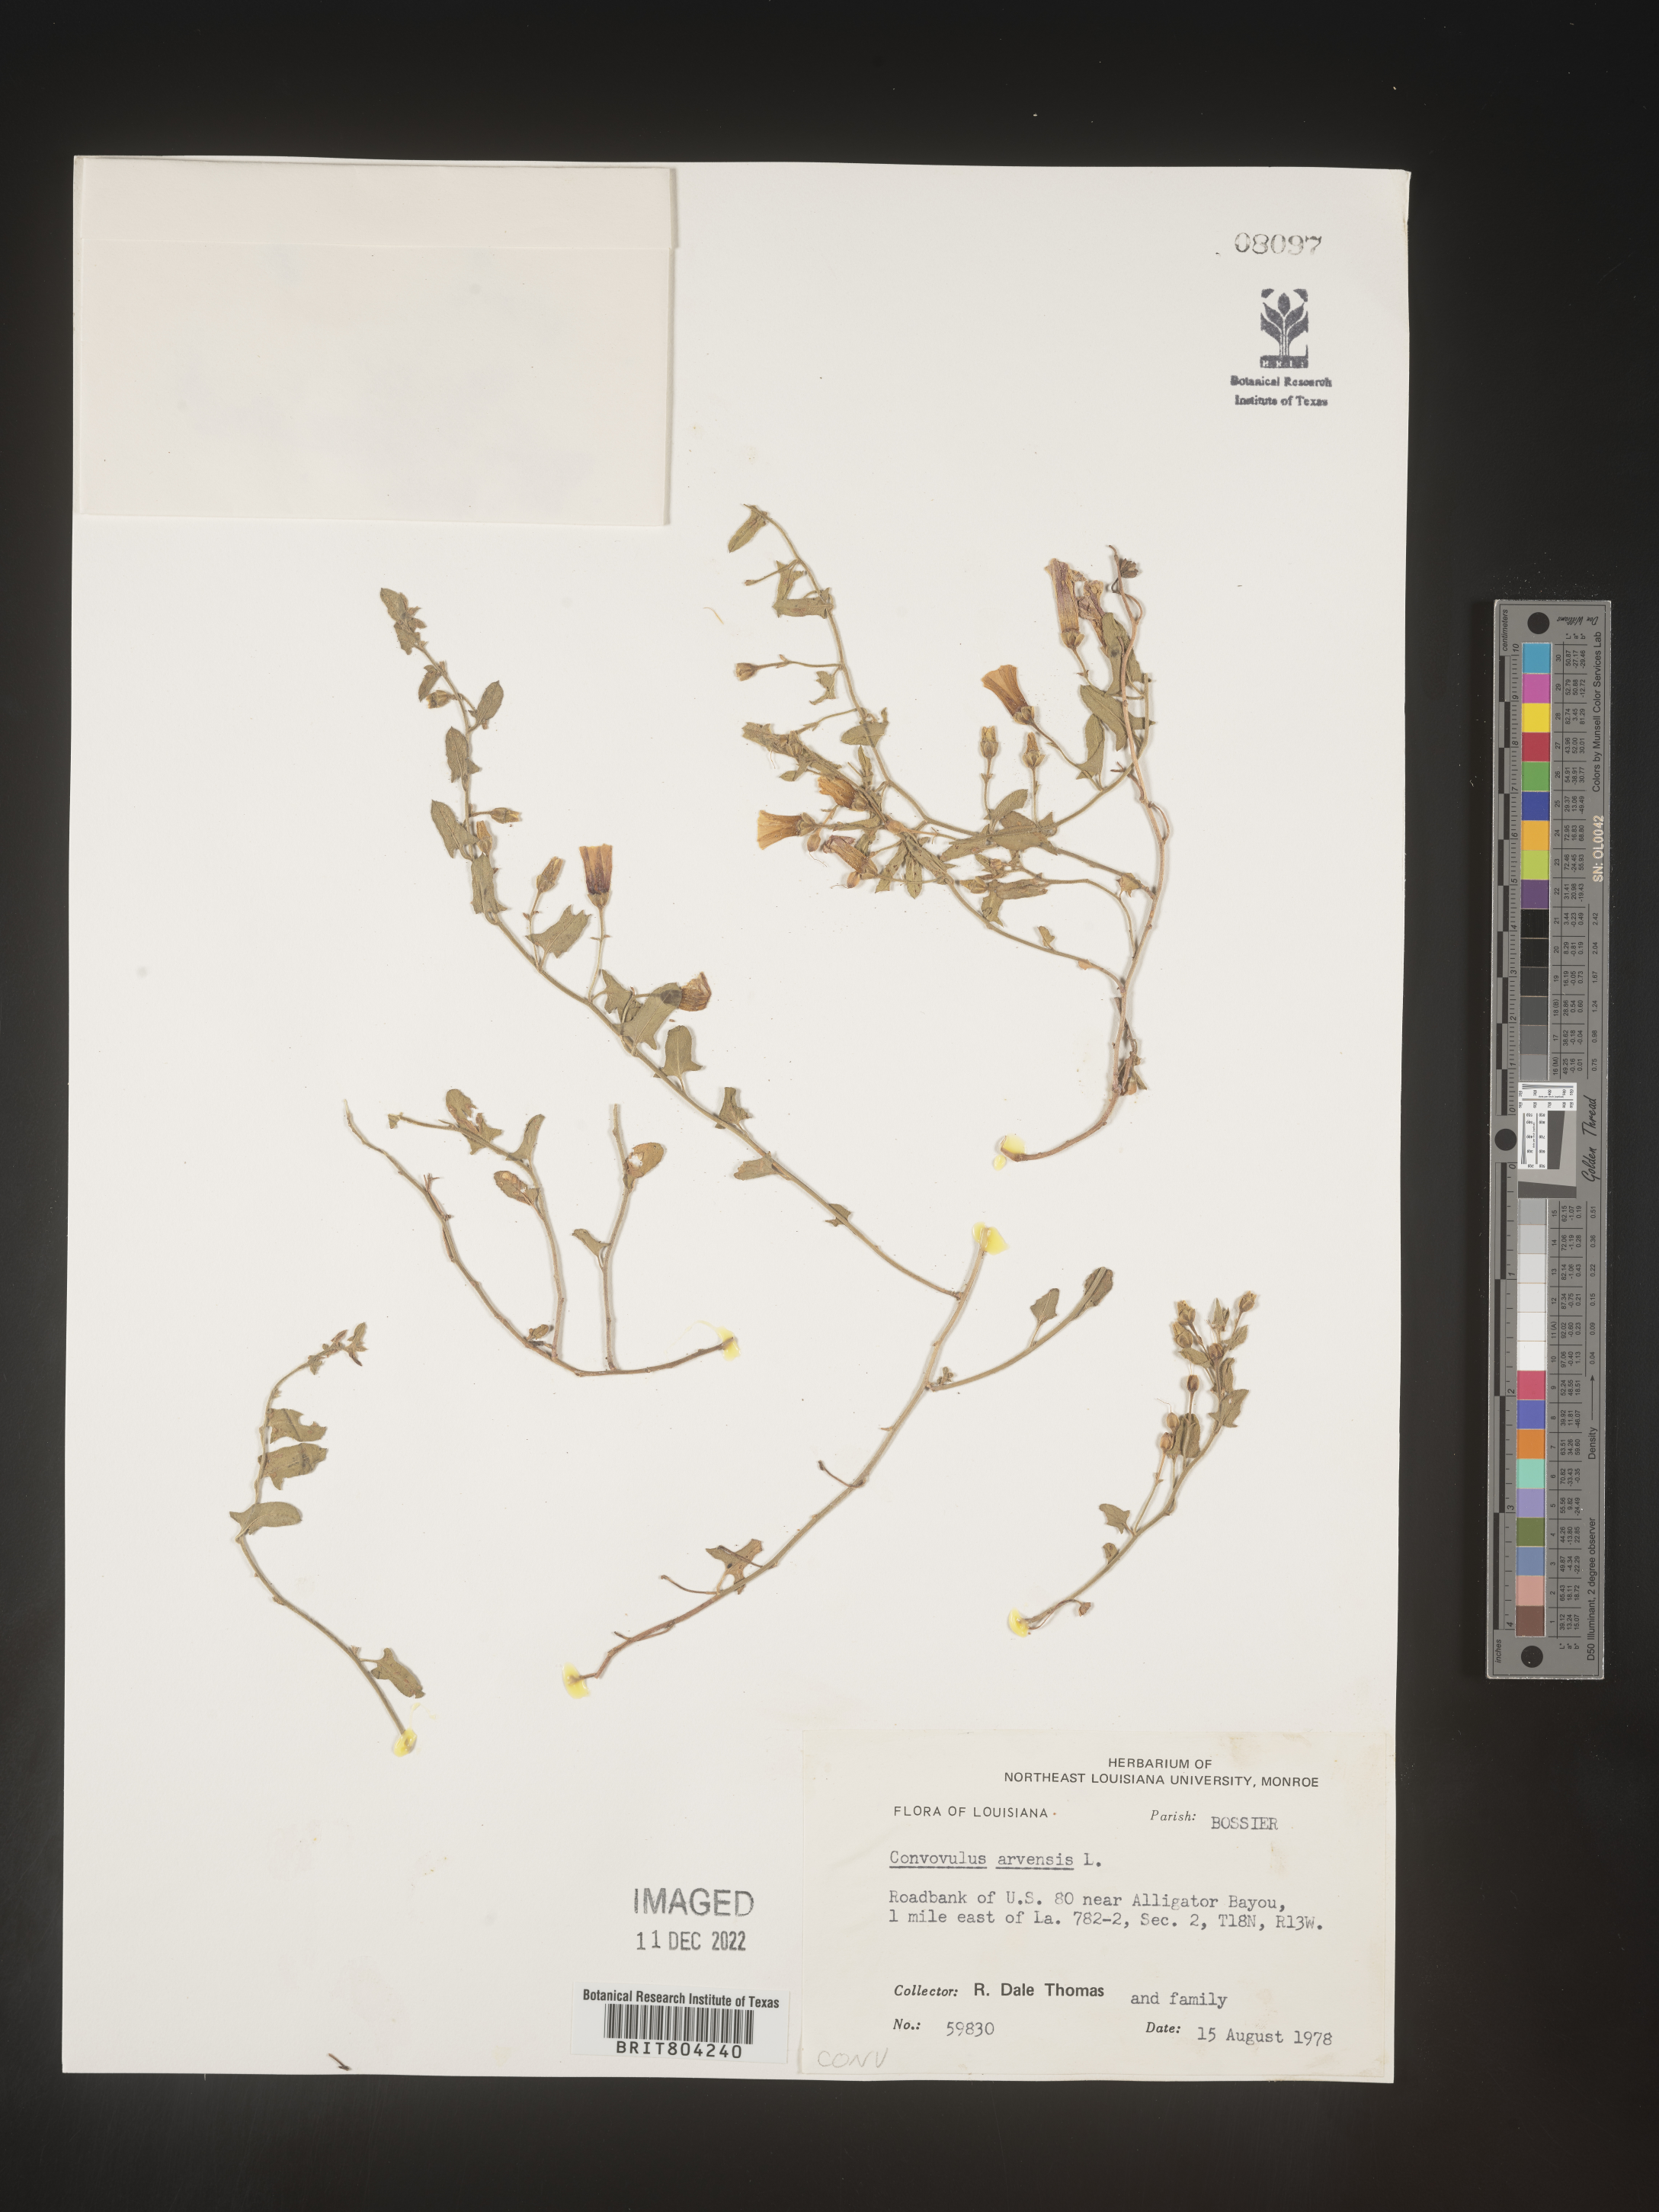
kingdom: Plantae
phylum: Tracheophyta
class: Magnoliopsida
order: Solanales
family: Convolvulaceae
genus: Convolvulus
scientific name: Convolvulus arvensis
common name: Field bindweed
